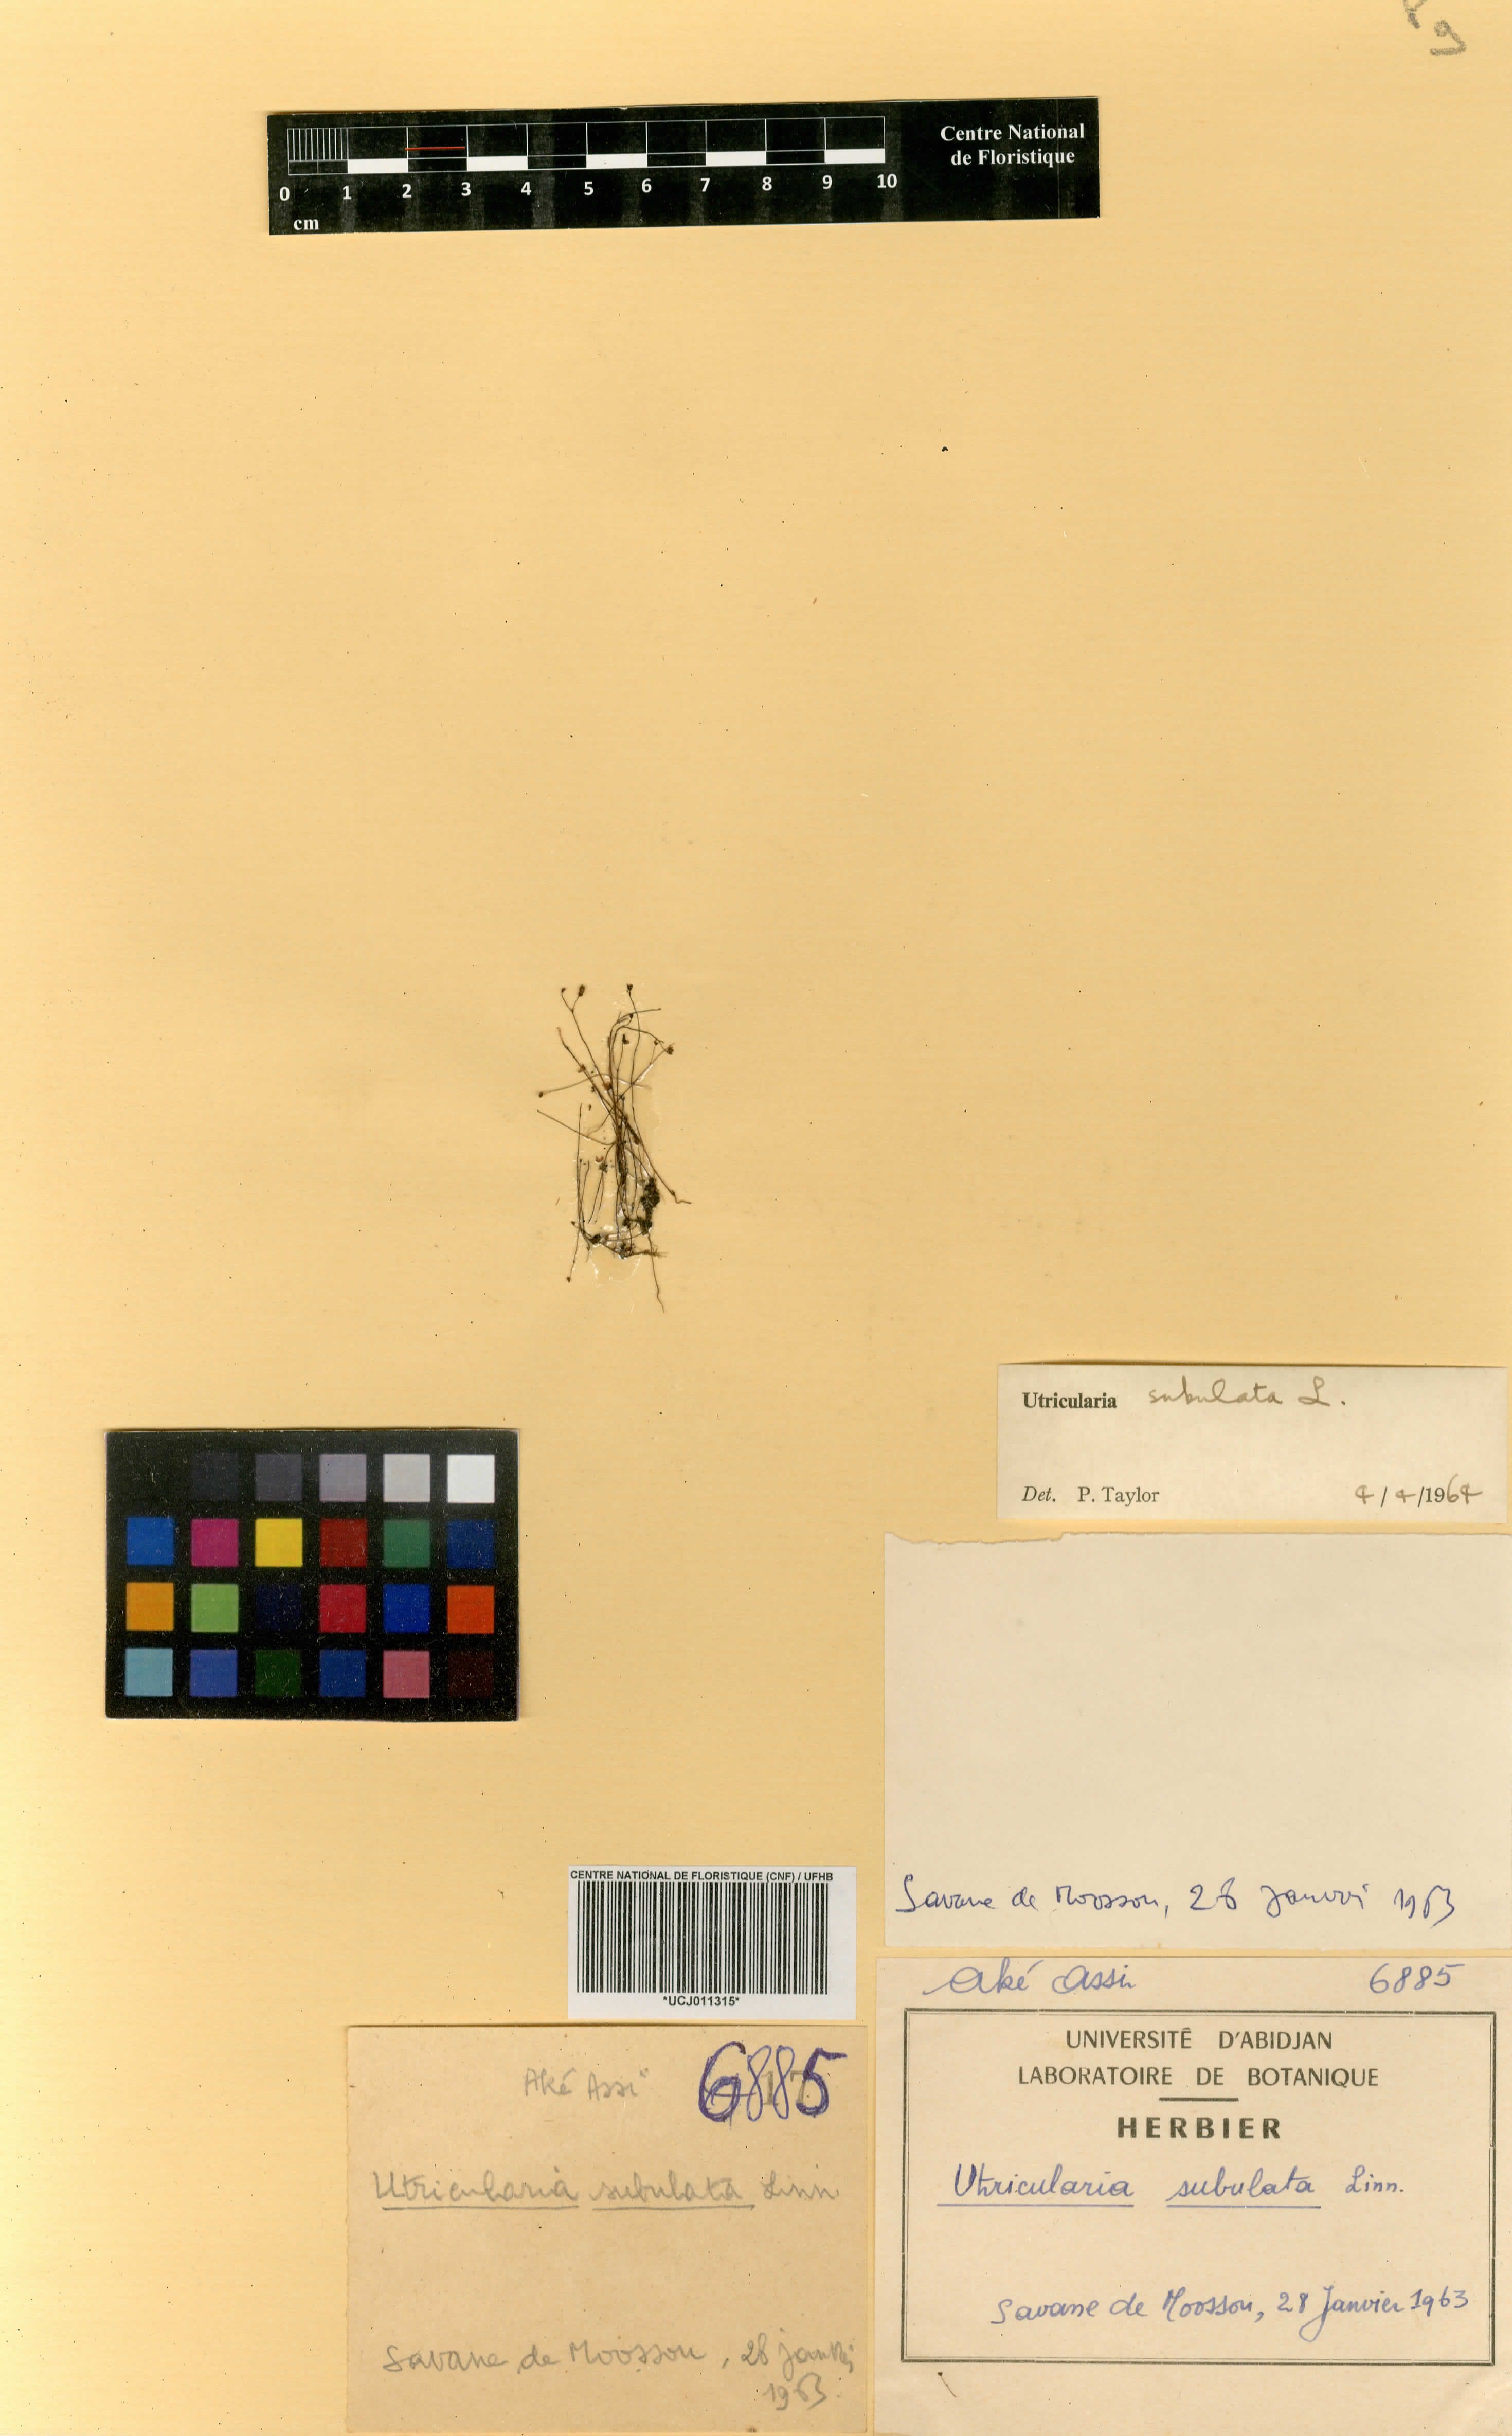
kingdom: Plantae
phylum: Tracheophyta
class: Magnoliopsida
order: Lamiales
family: Lentibulariaceae
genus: Utricularia
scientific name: Utricularia subulata
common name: Tiny bladderwort
